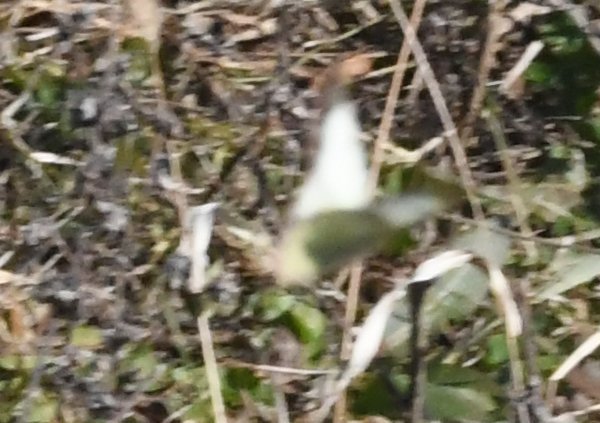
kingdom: Animalia
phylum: Arthropoda
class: Insecta
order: Lepidoptera
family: Pieridae
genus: Colias
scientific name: Colias
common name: Clouded Yellows
